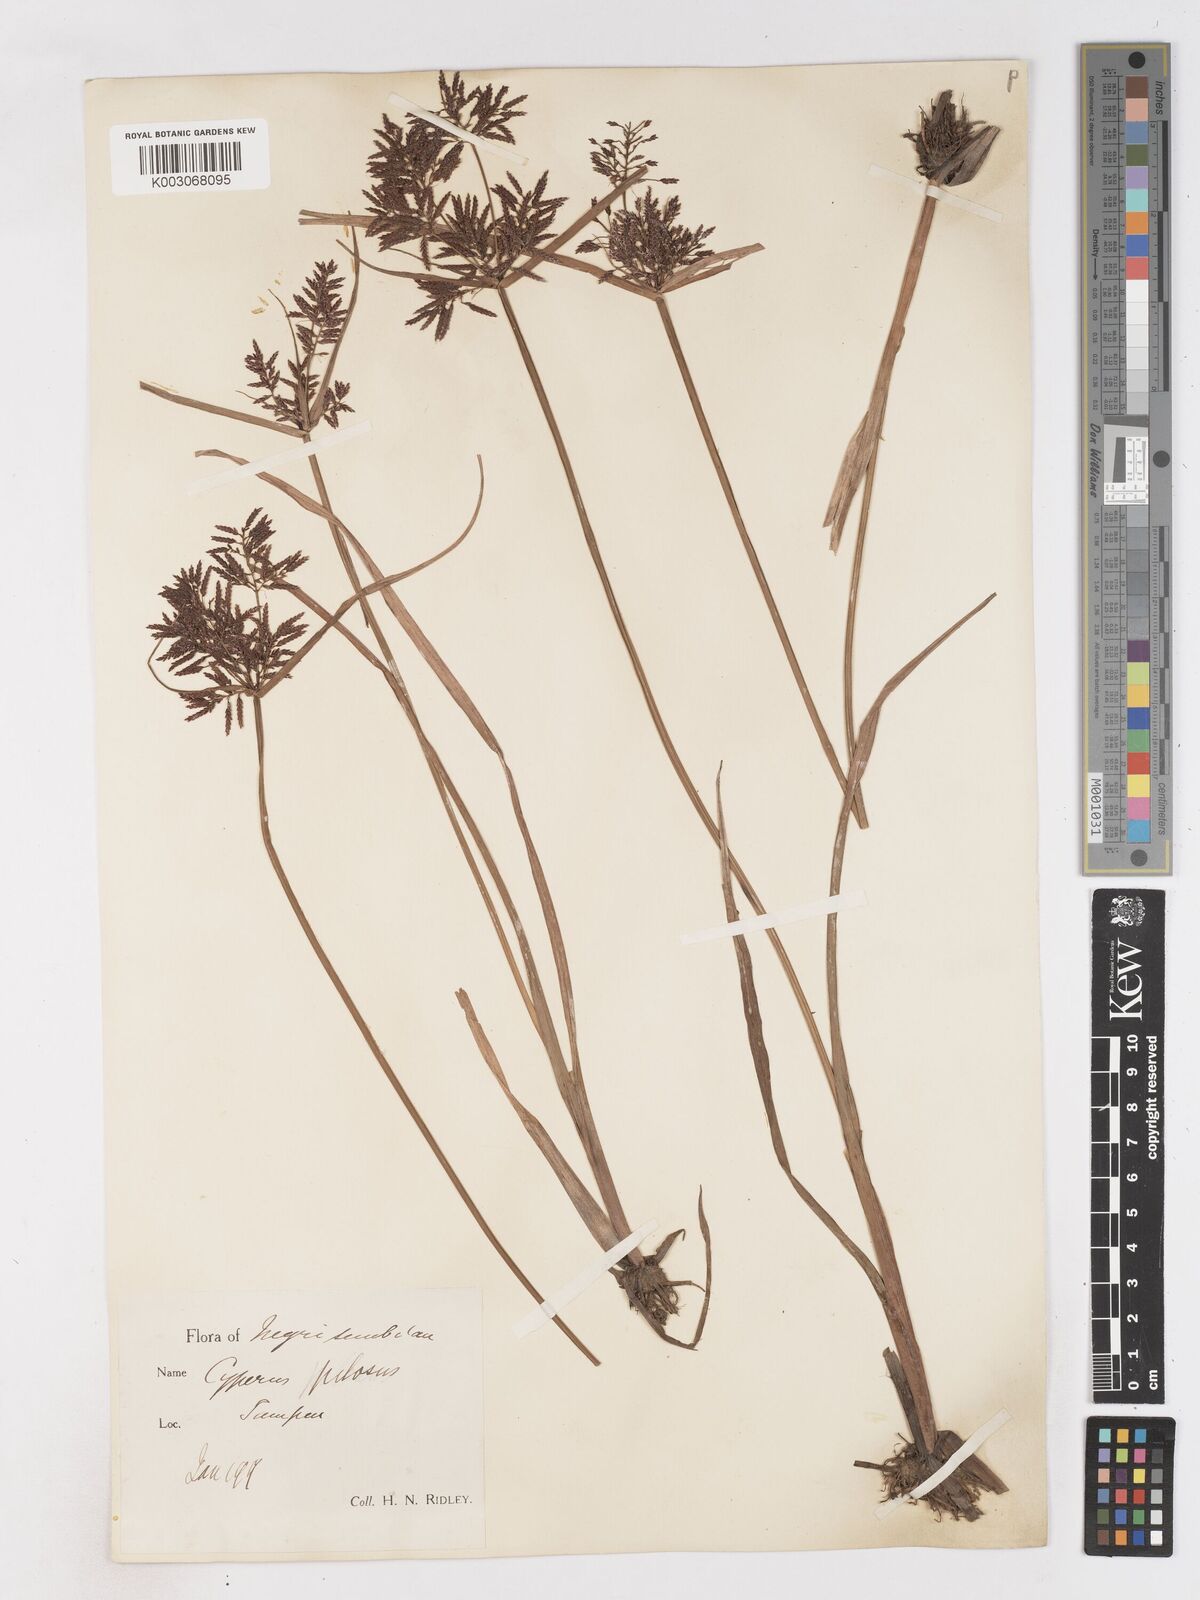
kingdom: Plantae
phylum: Tracheophyta
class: Liliopsida
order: Poales
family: Cyperaceae
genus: Cyperus
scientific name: Cyperus pilosus
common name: Fuzzy flatsedge
